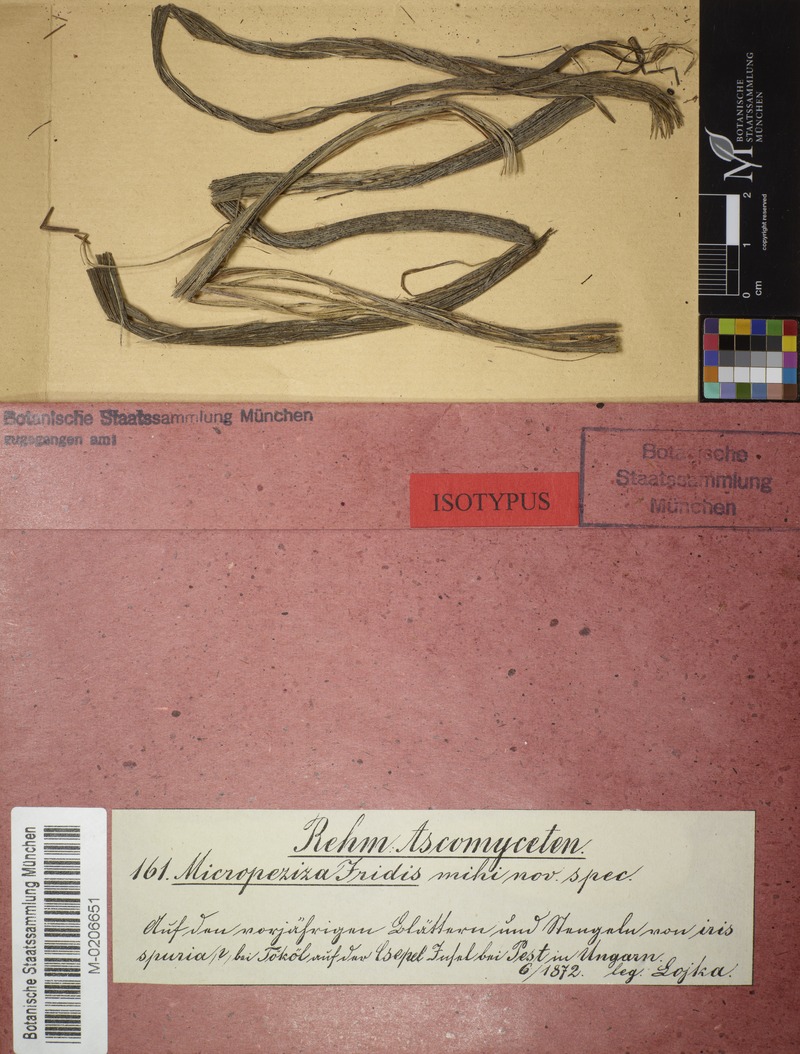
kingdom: Fungi
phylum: Ascomycota
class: Leotiomycetes
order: Helotiales
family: Ploettnerulaceae
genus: Pyrenopeziza
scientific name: Pyrenopeziza iridis
